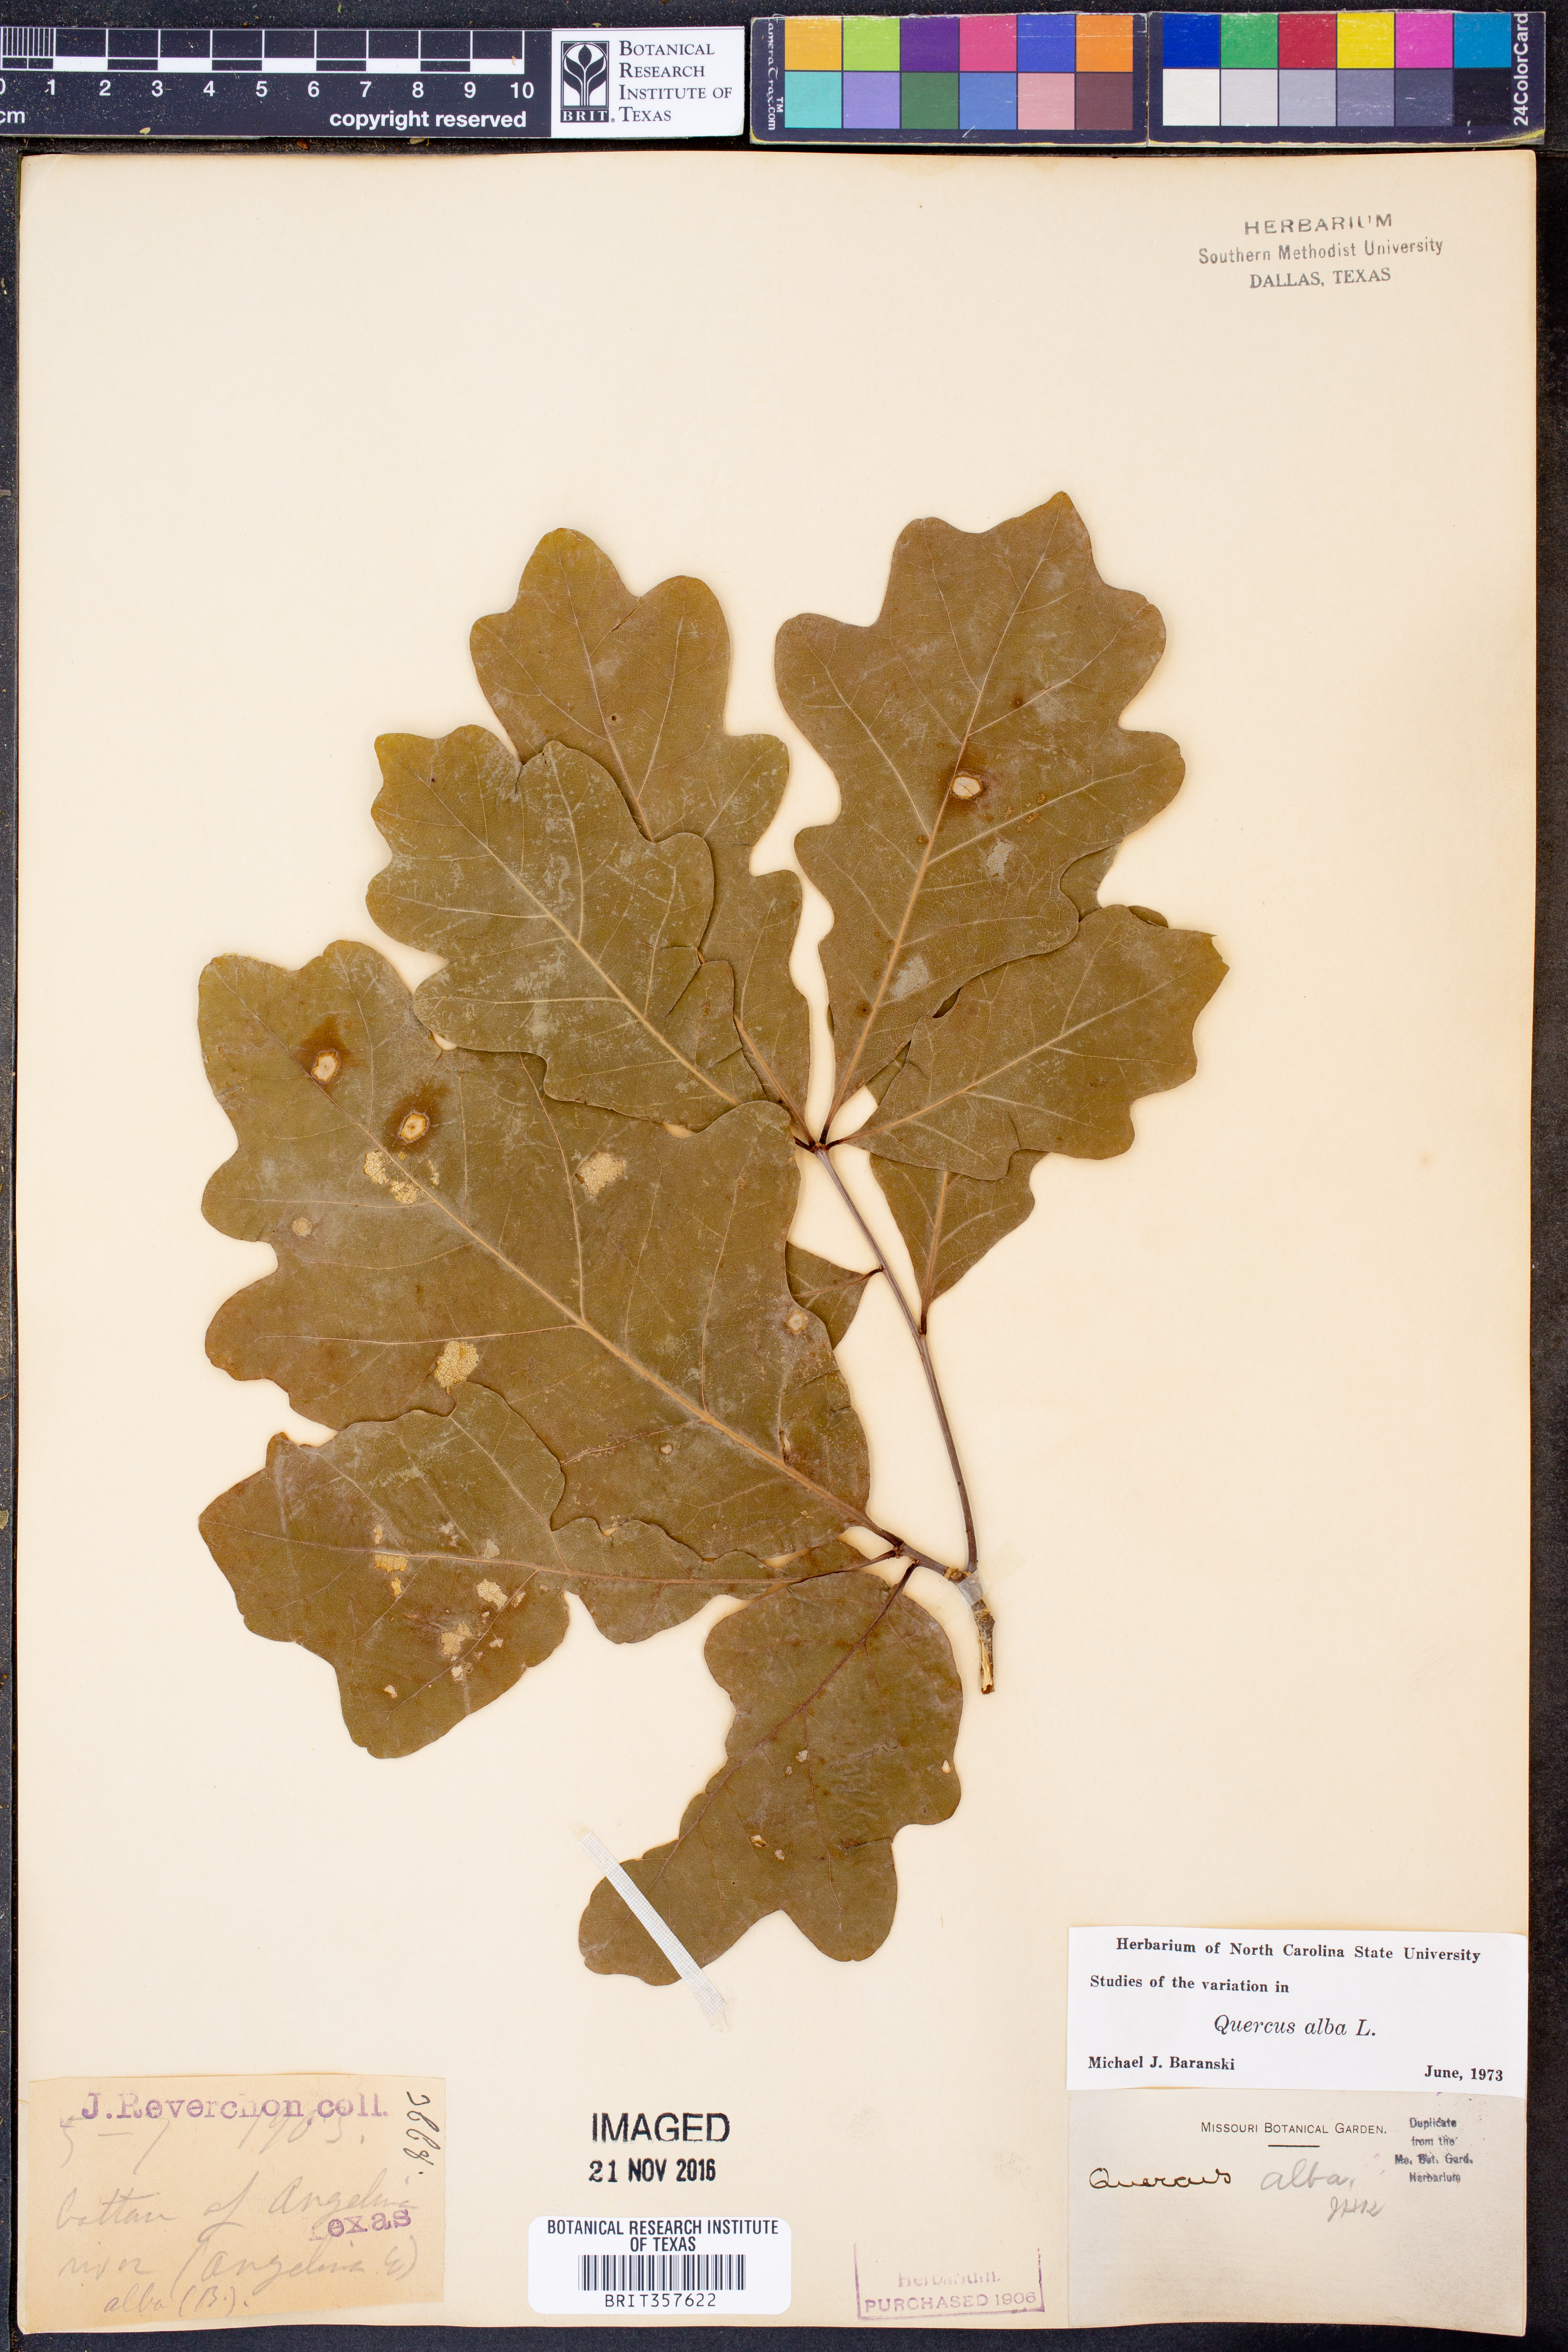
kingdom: Plantae
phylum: Tracheophyta
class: Magnoliopsida
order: Fagales
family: Fagaceae
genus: Quercus
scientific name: Quercus alba
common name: White oak
